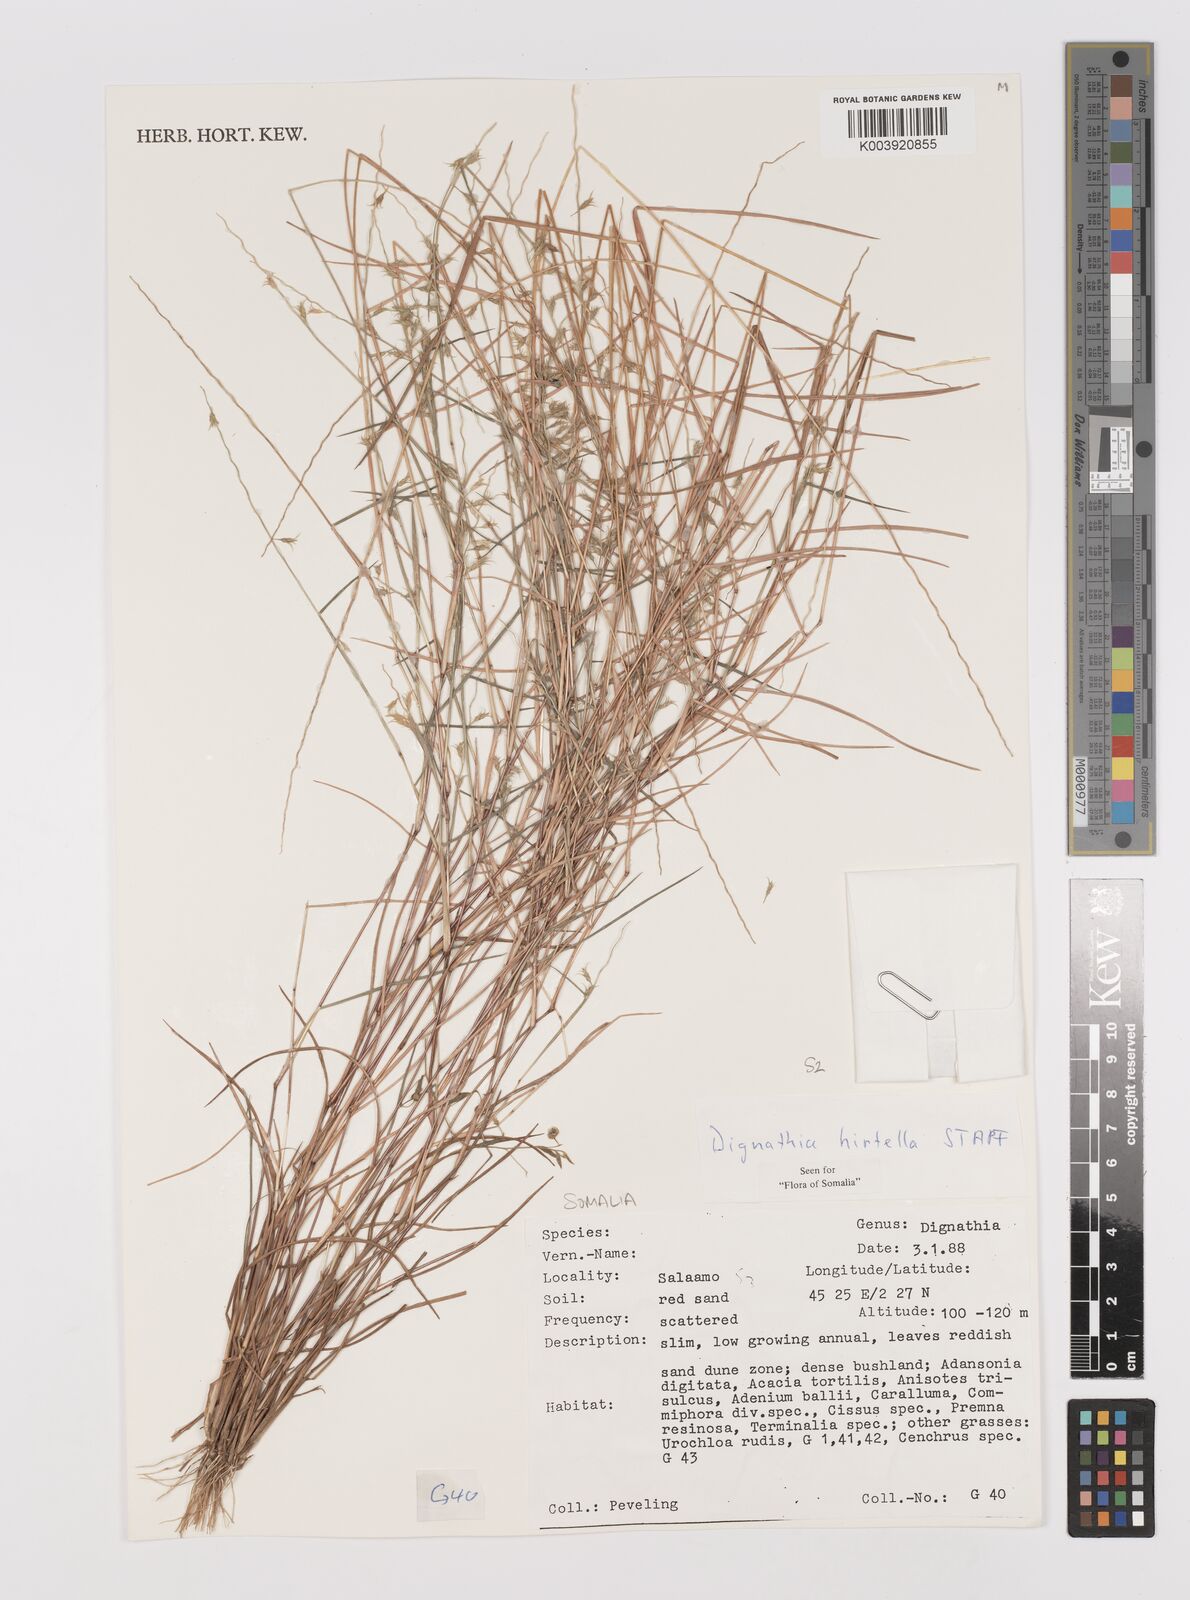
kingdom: Plantae
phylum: Tracheophyta
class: Liliopsida
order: Poales
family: Poaceae
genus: Dignathia
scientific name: Dignathia hirtella
